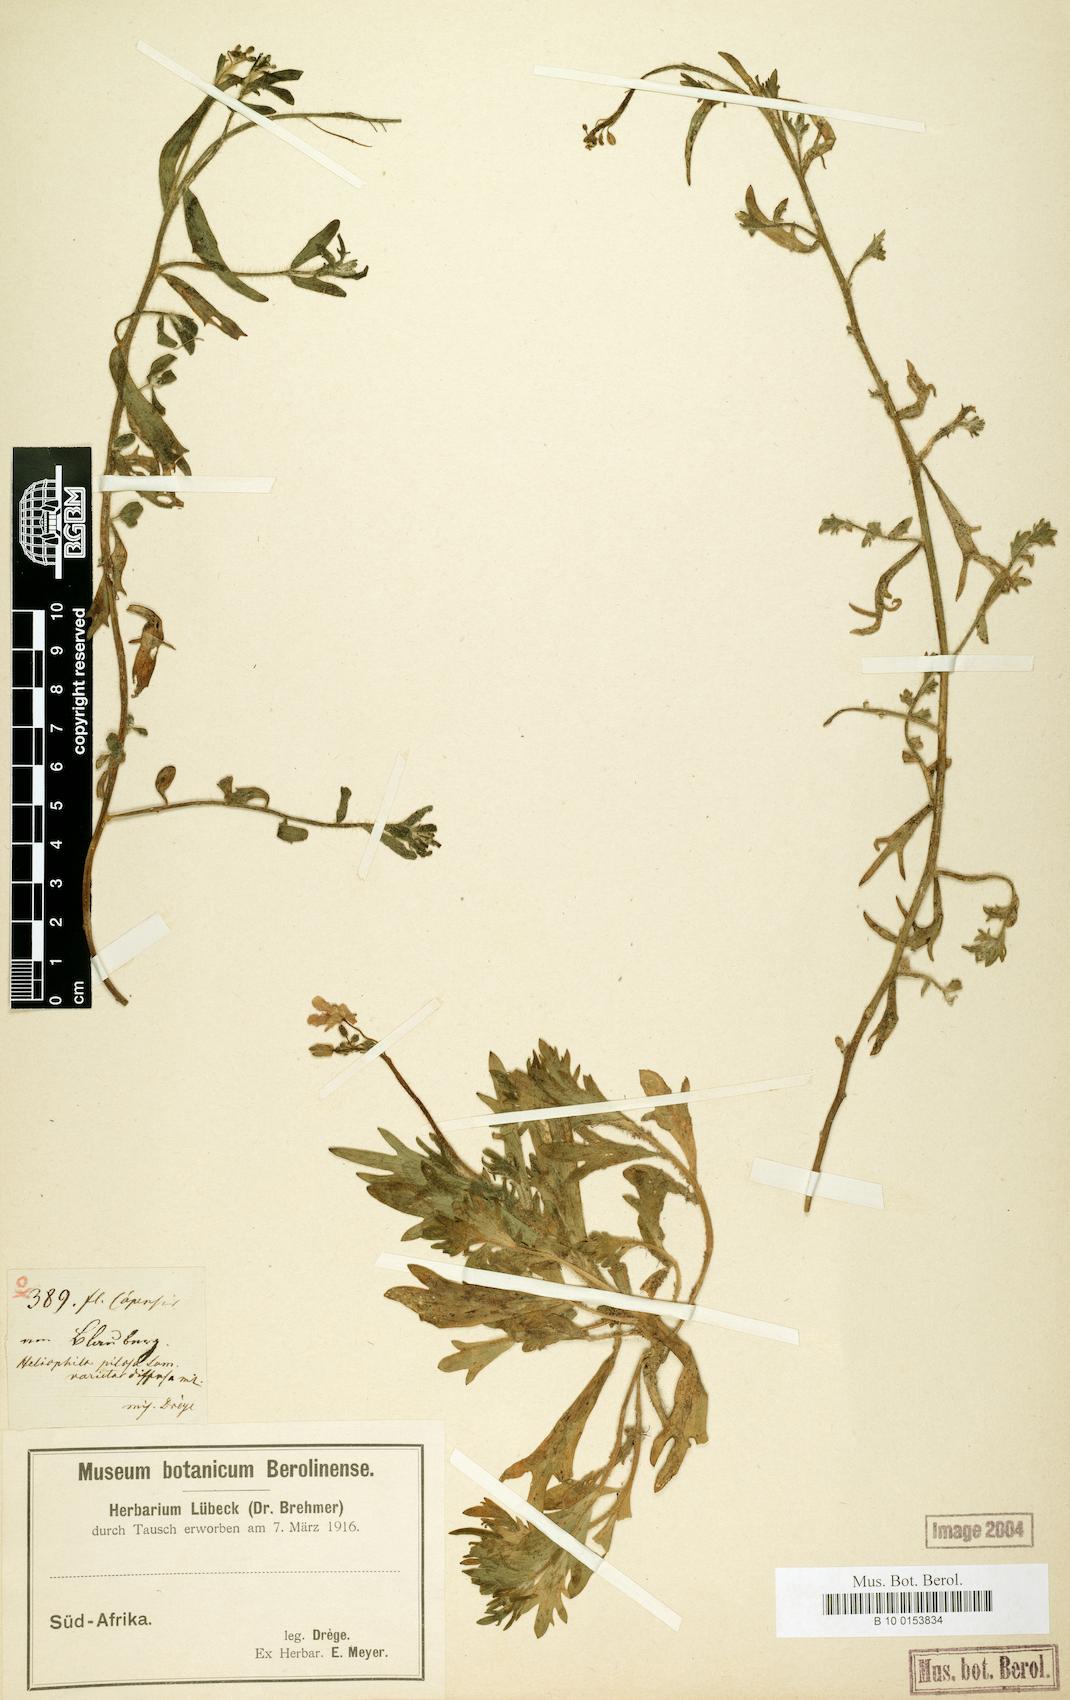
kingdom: Plantae
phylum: Tracheophyta
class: Magnoliopsida
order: Brassicales
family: Brassicaceae
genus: Heliophila
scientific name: Heliophila africana
